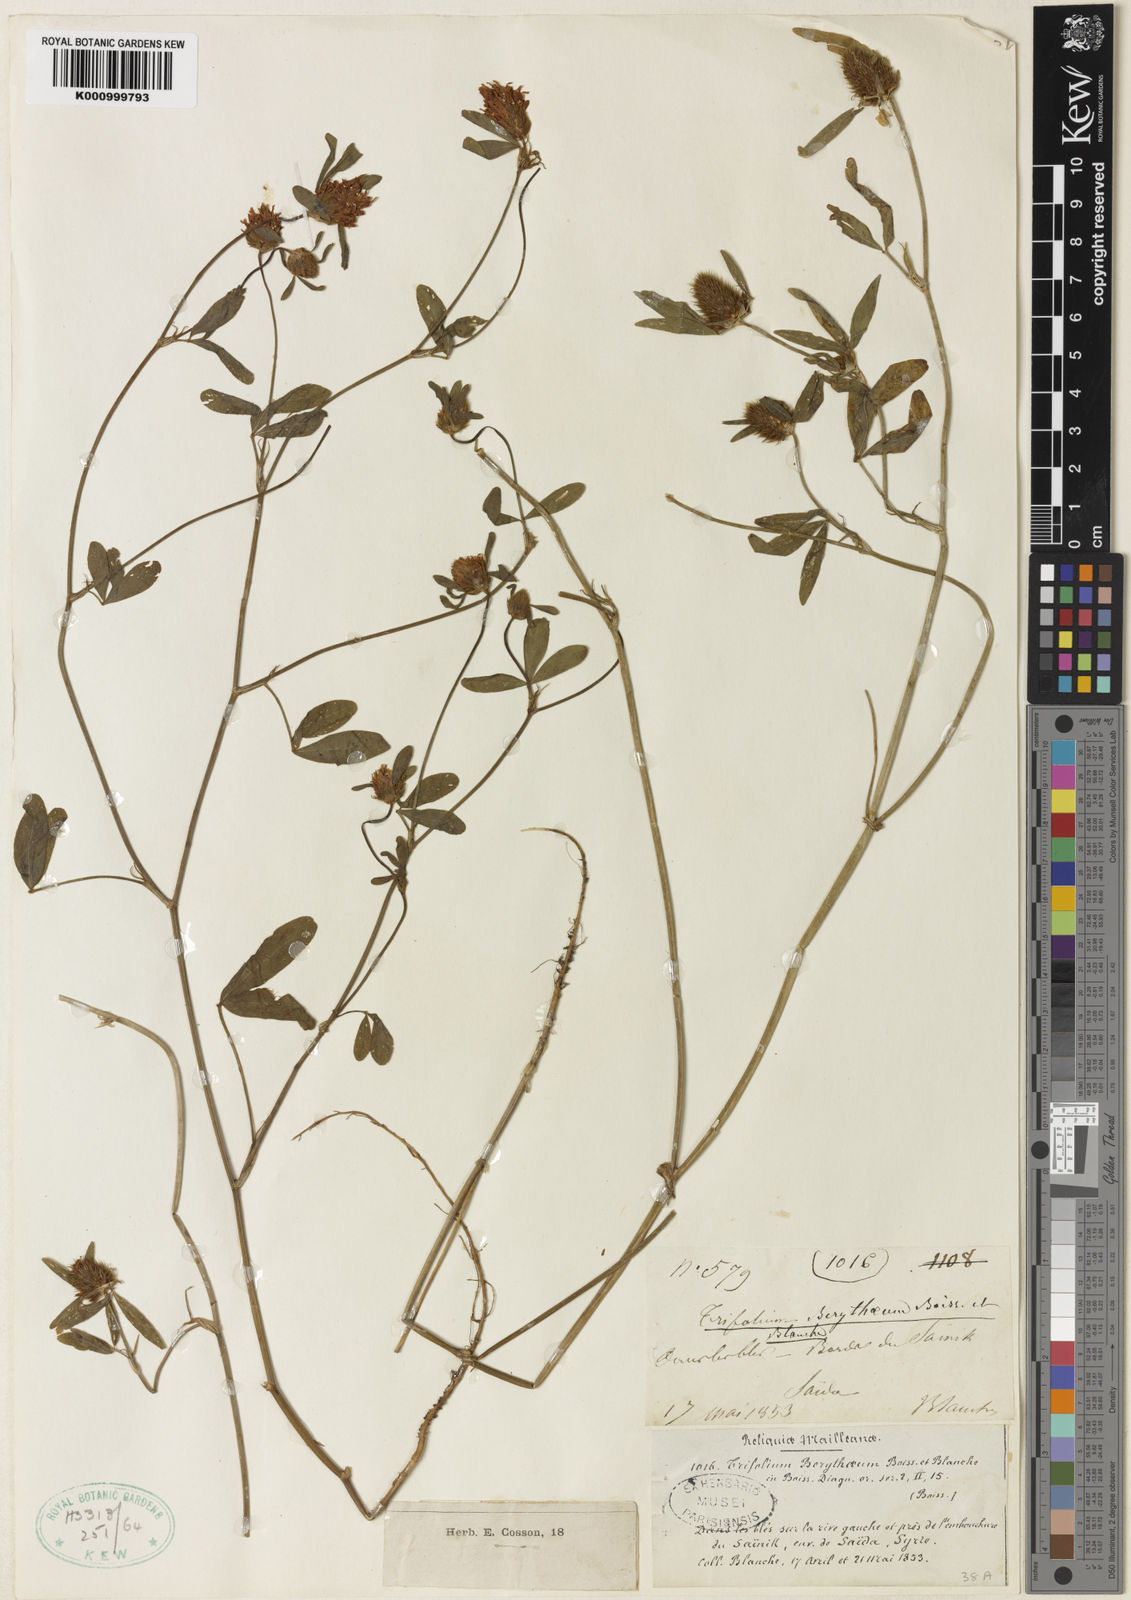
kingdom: Plantae
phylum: Tracheophyta
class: Magnoliopsida
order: Fabales
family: Fabaceae
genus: Trifolium
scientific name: Trifolium berytheum
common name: Beirut clover
